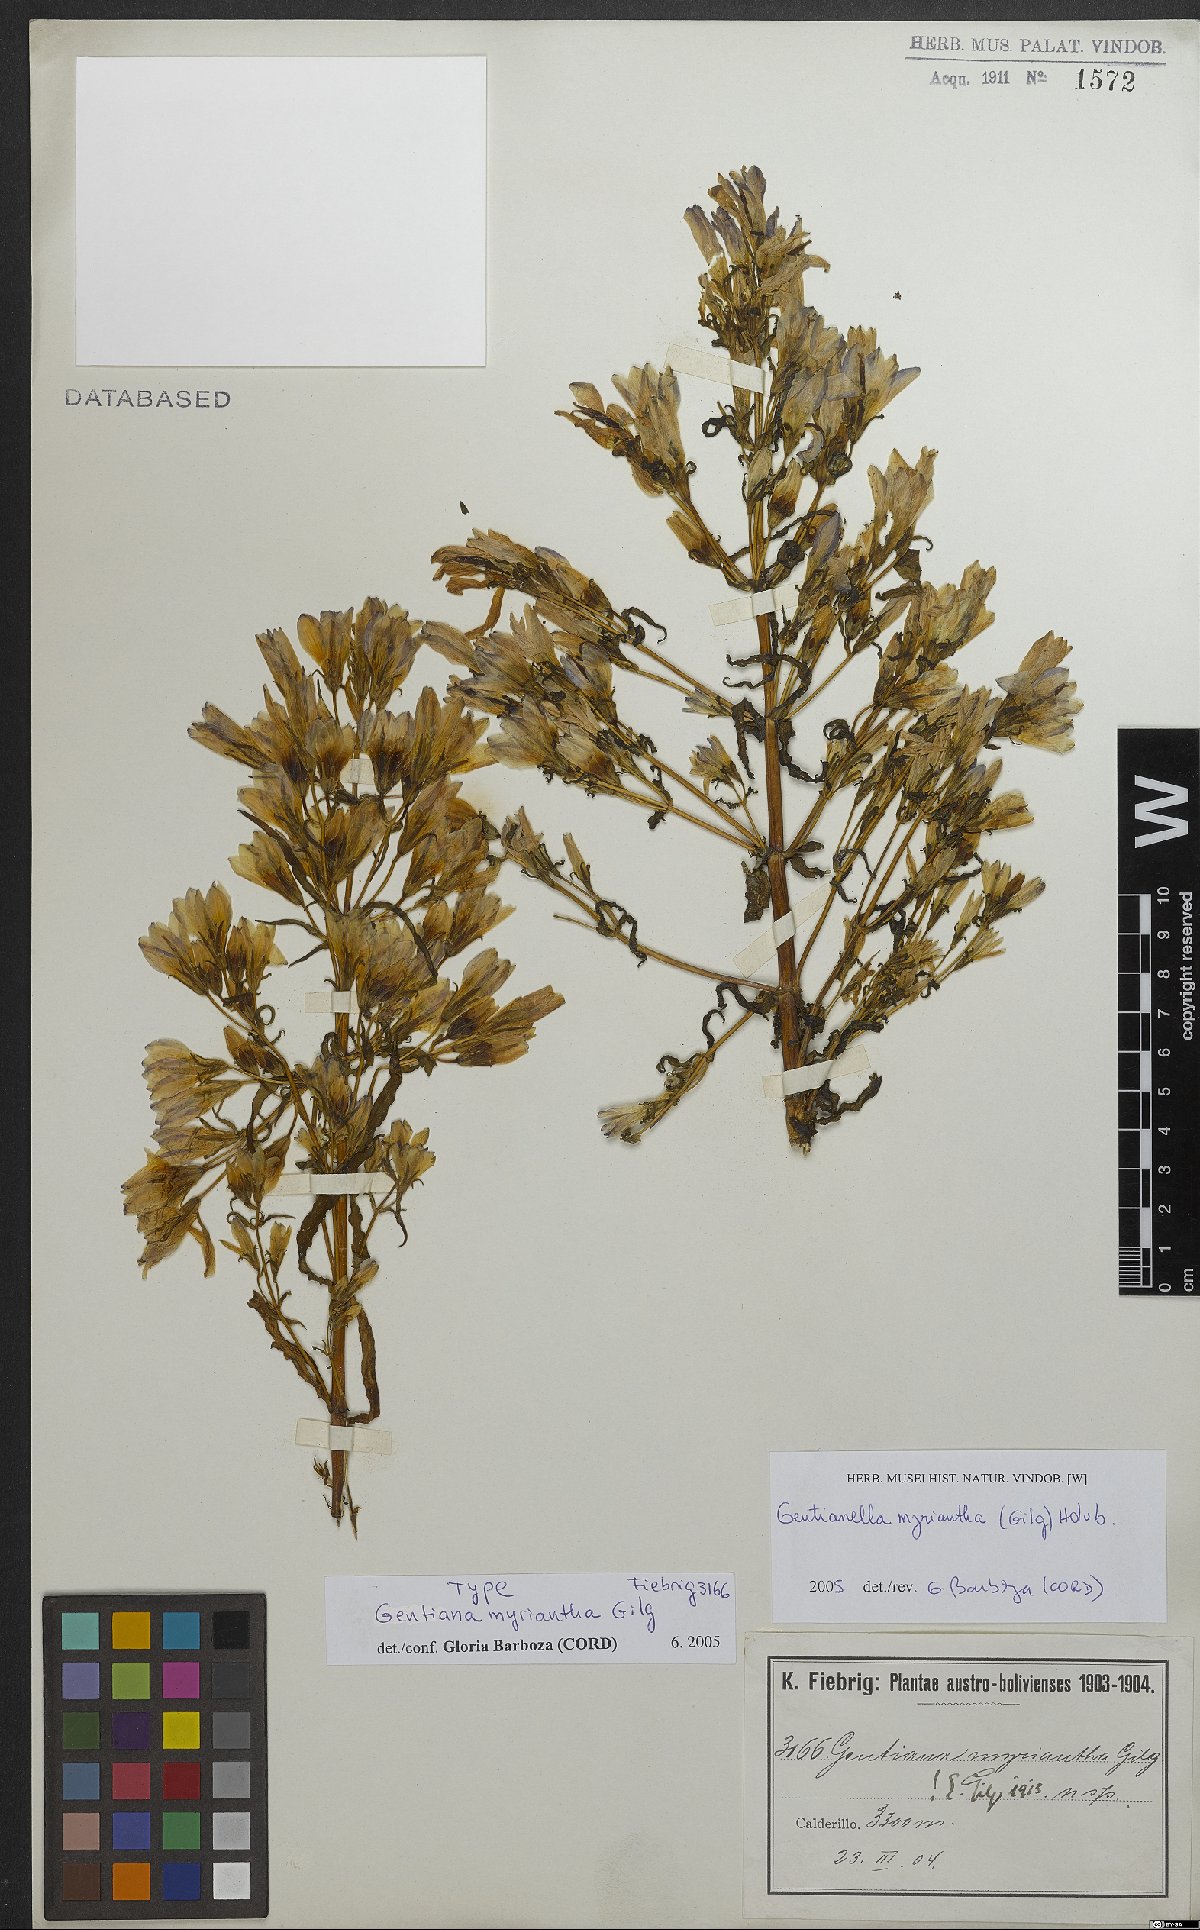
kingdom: Plantae
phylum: Tracheophyta
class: Magnoliopsida
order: Gentianales
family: Gentianaceae
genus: Gentianella
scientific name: Gentianella myriantha
